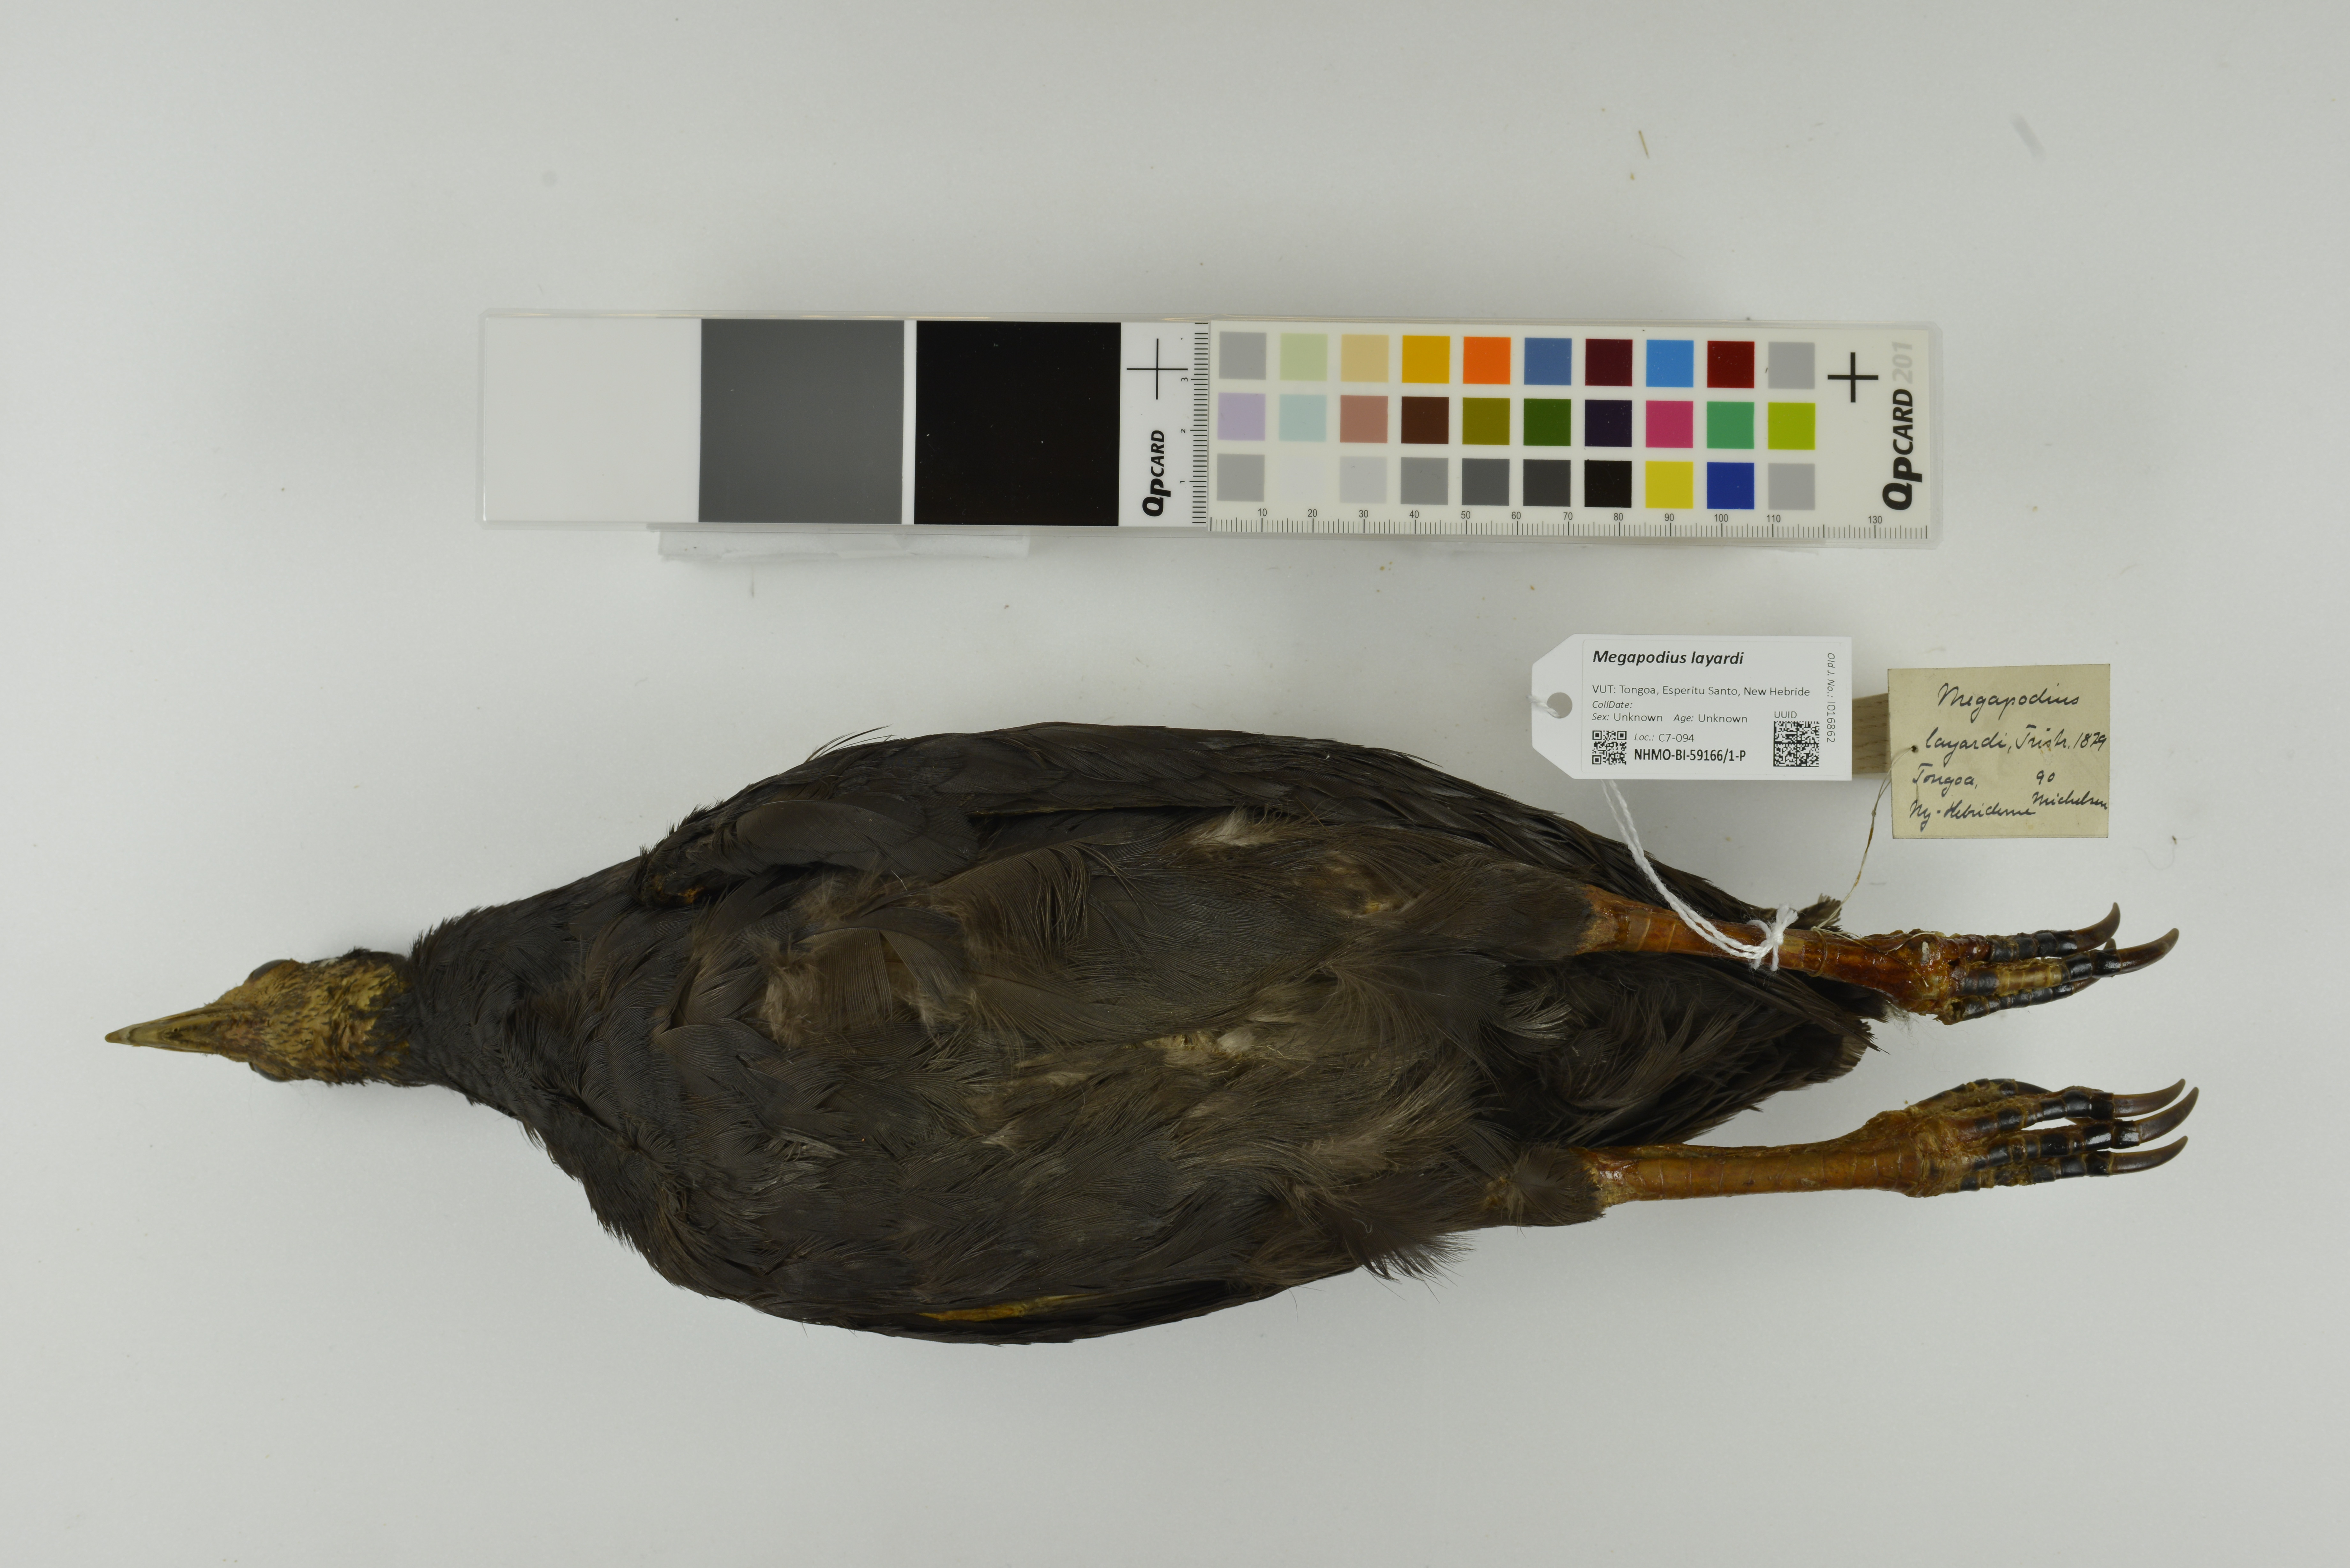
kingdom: Animalia
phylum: Chordata
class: Aves
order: Galliformes
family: Megapodiidae
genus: Megapodius
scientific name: Megapodius layardi
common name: Vanuatu megapode
